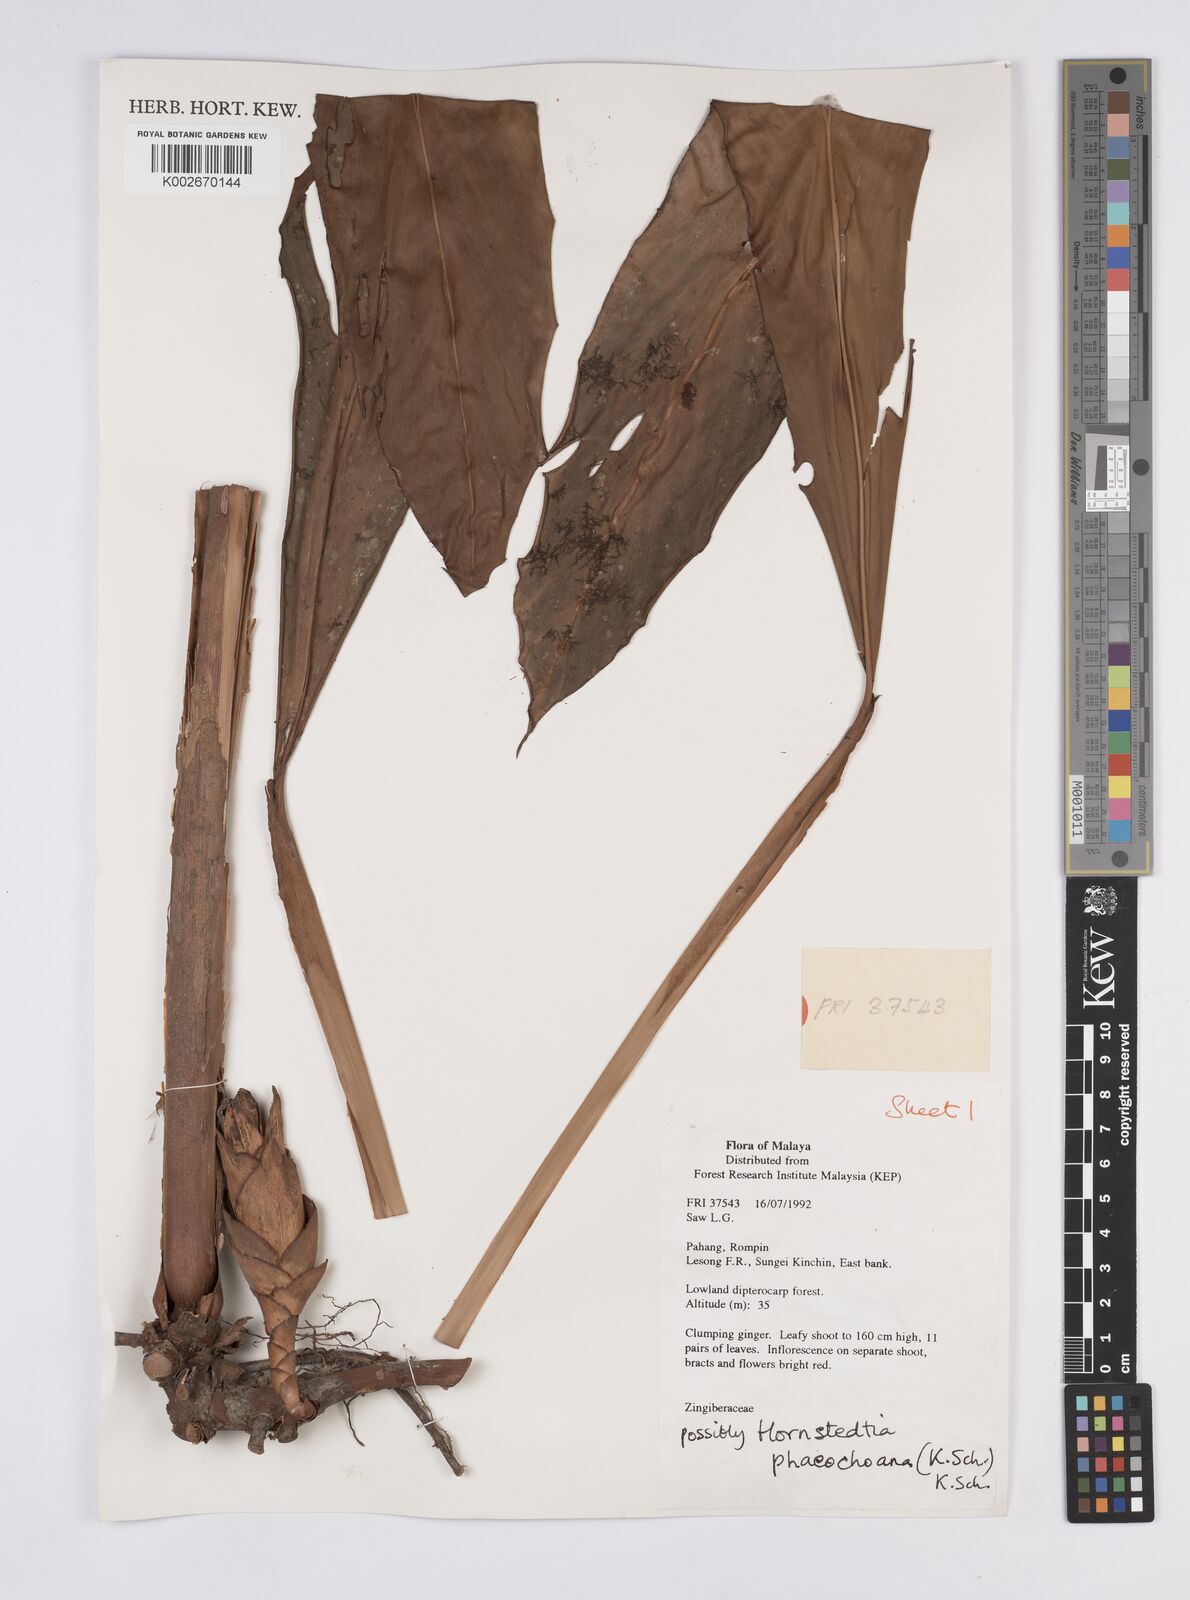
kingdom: Plantae
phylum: Tracheophyta
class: Liliopsida
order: Zingiberales
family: Zingiberaceae
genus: Hornstedtia
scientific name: Hornstedtia phaeochoana
